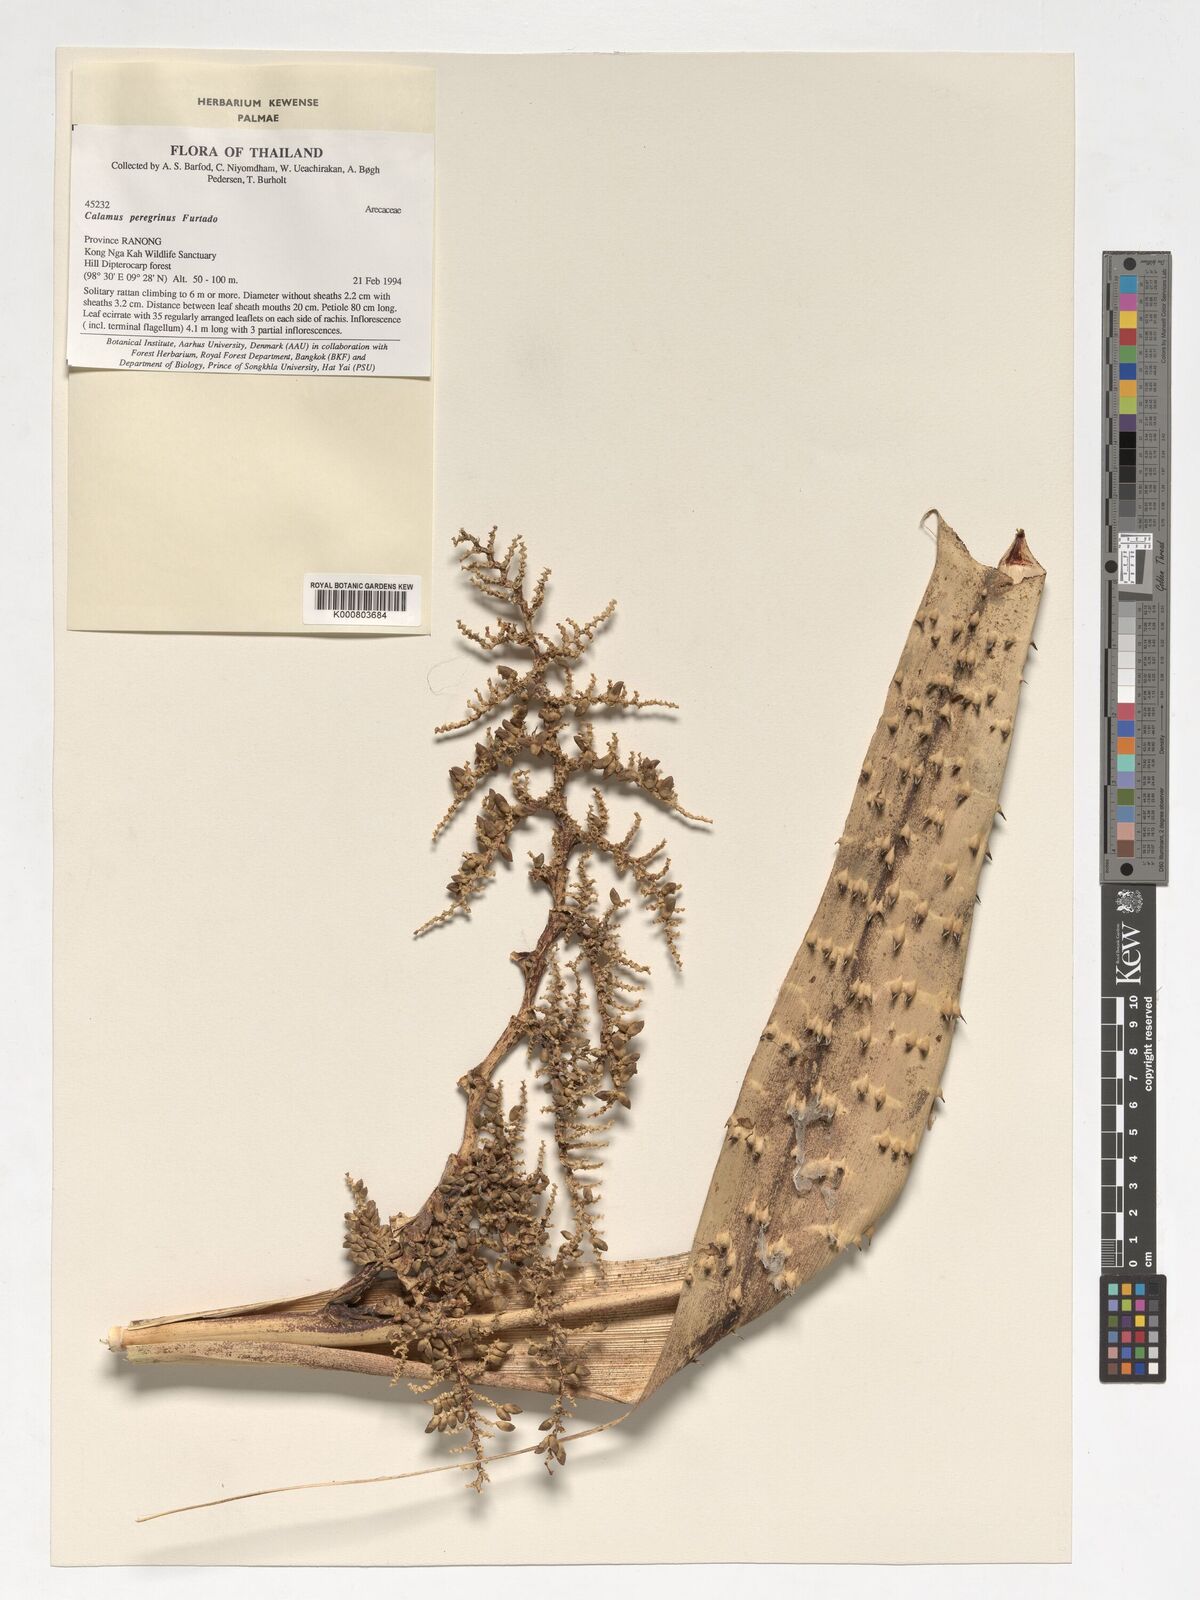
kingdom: Plantae
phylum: Tracheophyta
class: Liliopsida
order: Arecales
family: Arecaceae
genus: Calamus
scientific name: Calamus peregrinus
